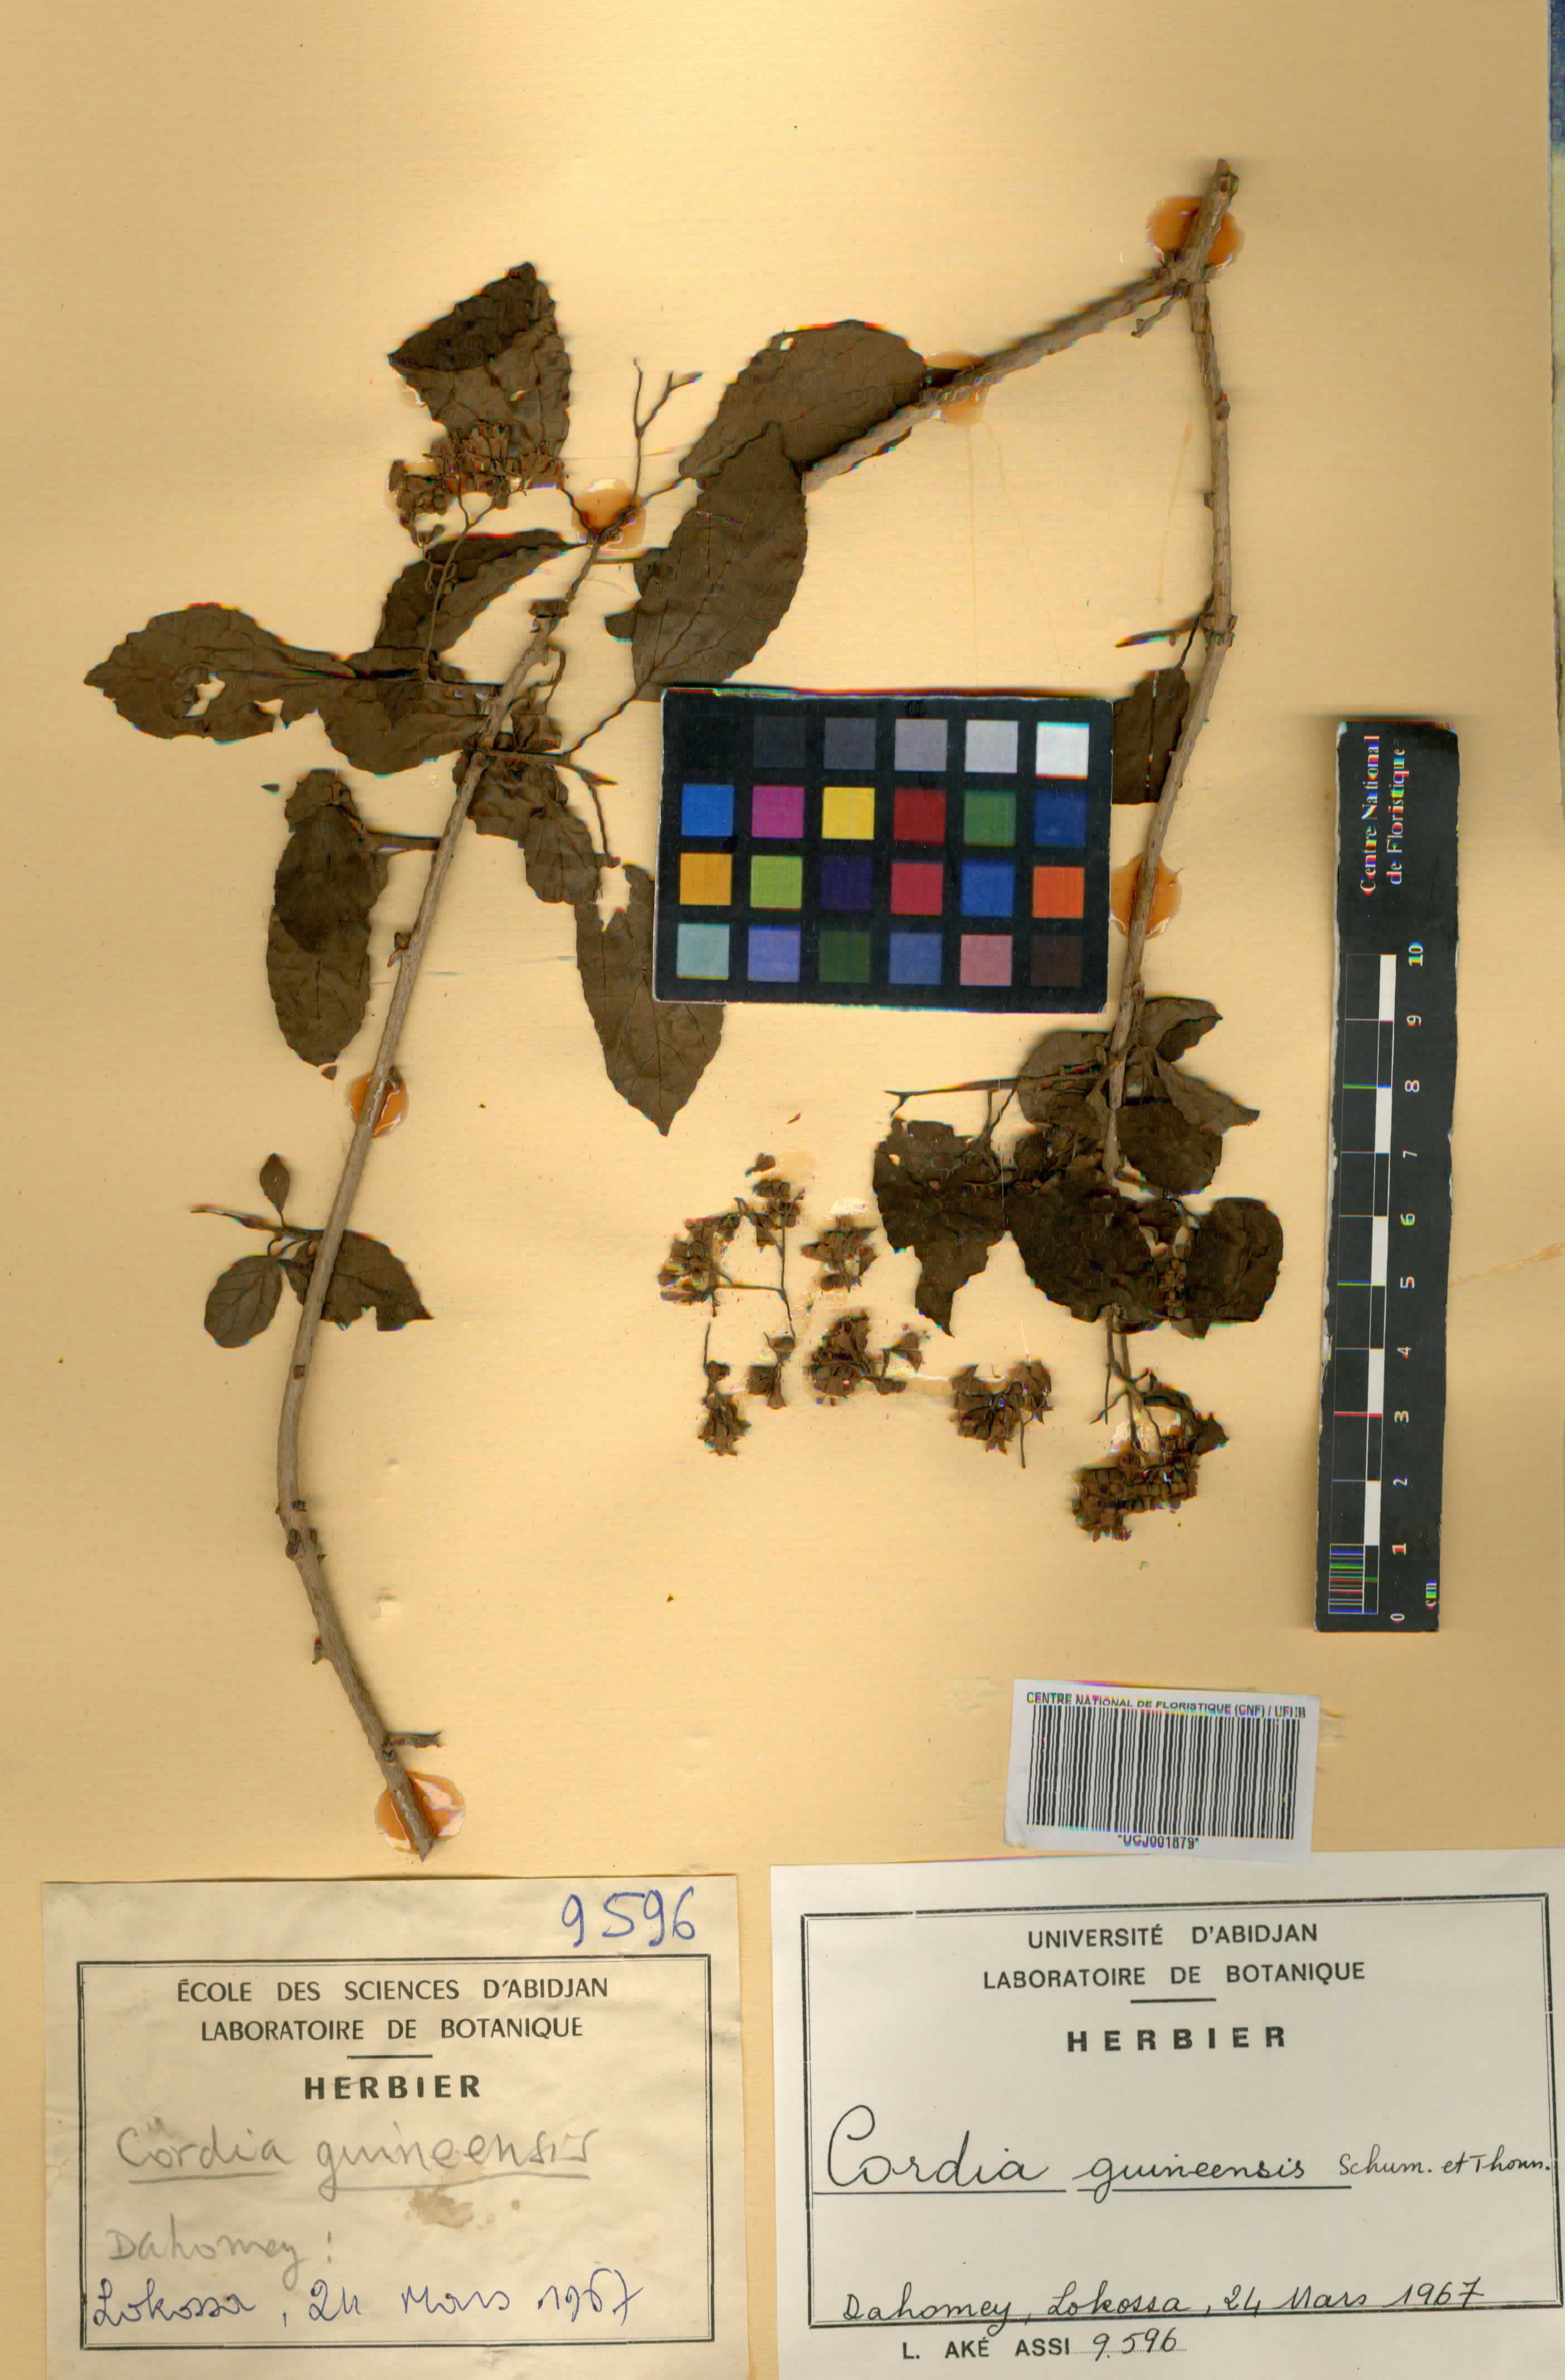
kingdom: Plantae
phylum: Tracheophyta
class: Magnoliopsida
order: Boraginales
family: Cordiaceae
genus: Cordia
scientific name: Cordia guineensis
